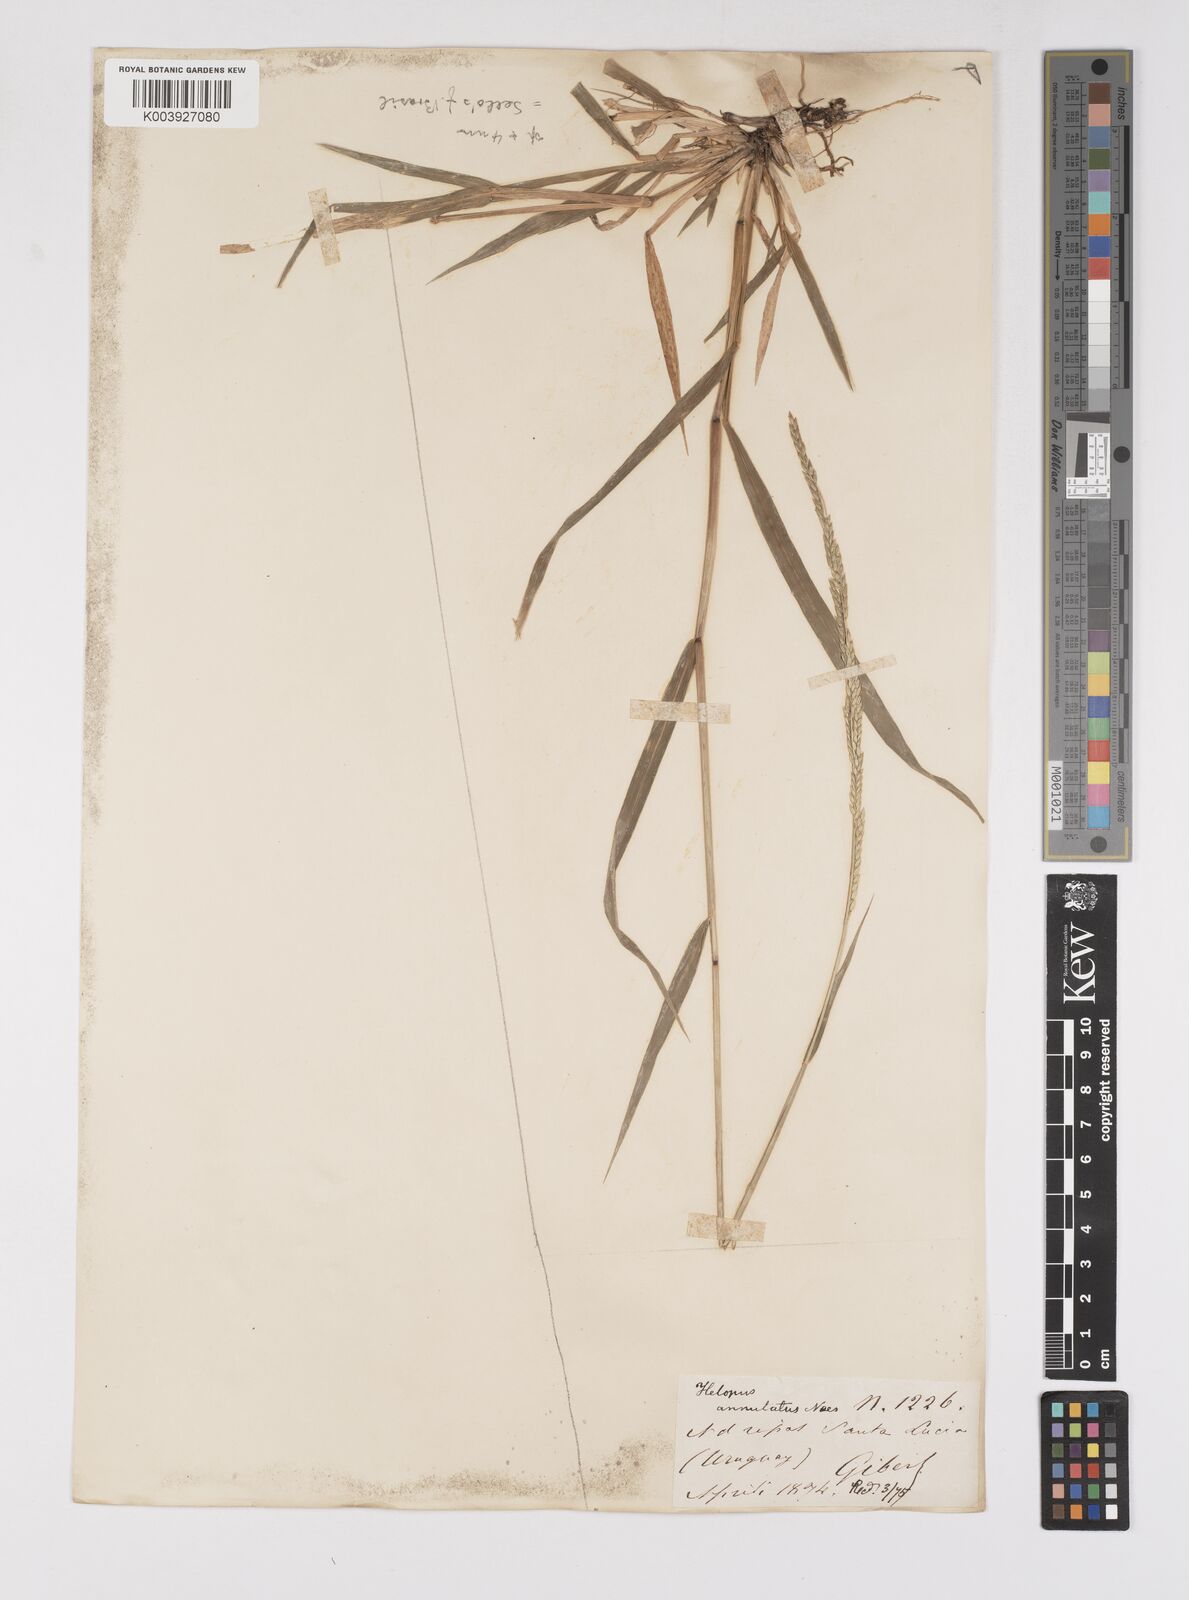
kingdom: Plantae
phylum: Tracheophyta
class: Liliopsida
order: Poales
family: Poaceae
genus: Eriochloa
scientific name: Eriochloa punctata
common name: Louisiana cupgrass
